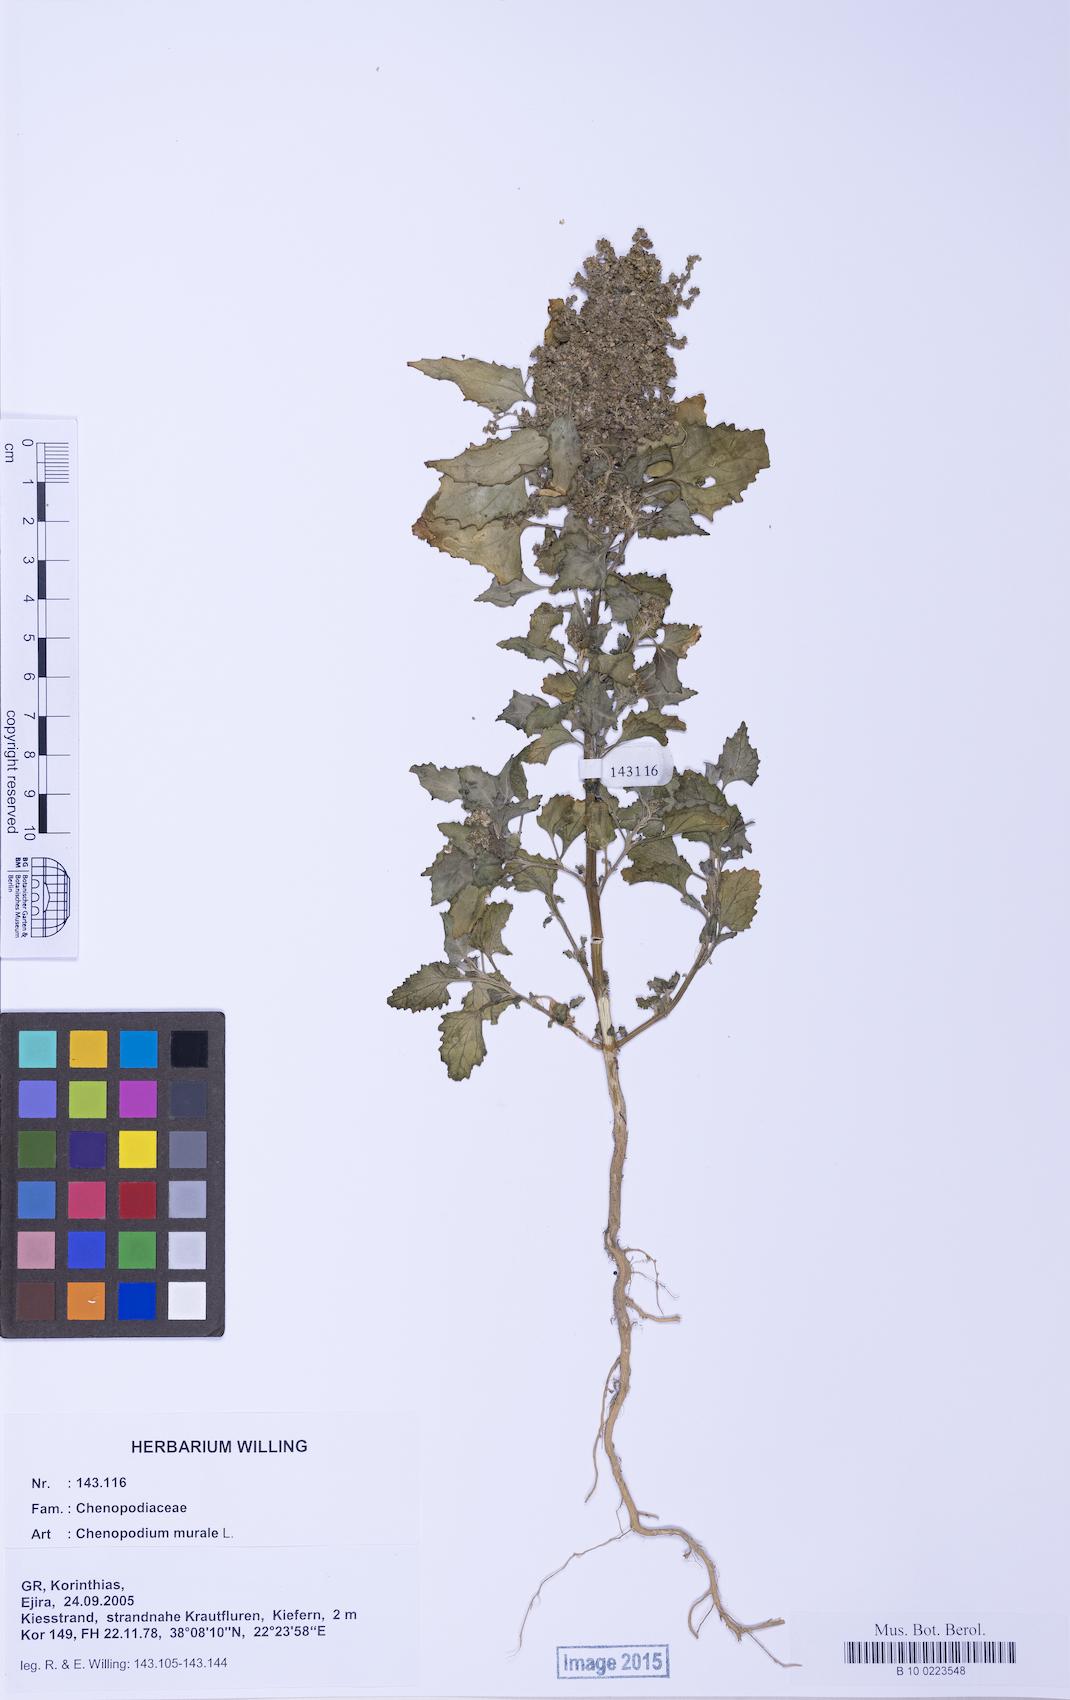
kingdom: Plantae
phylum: Tracheophyta
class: Magnoliopsida
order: Caryophyllales
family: Amaranthaceae
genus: Chenopodiastrum
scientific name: Chenopodiastrum murale
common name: Sowbane
